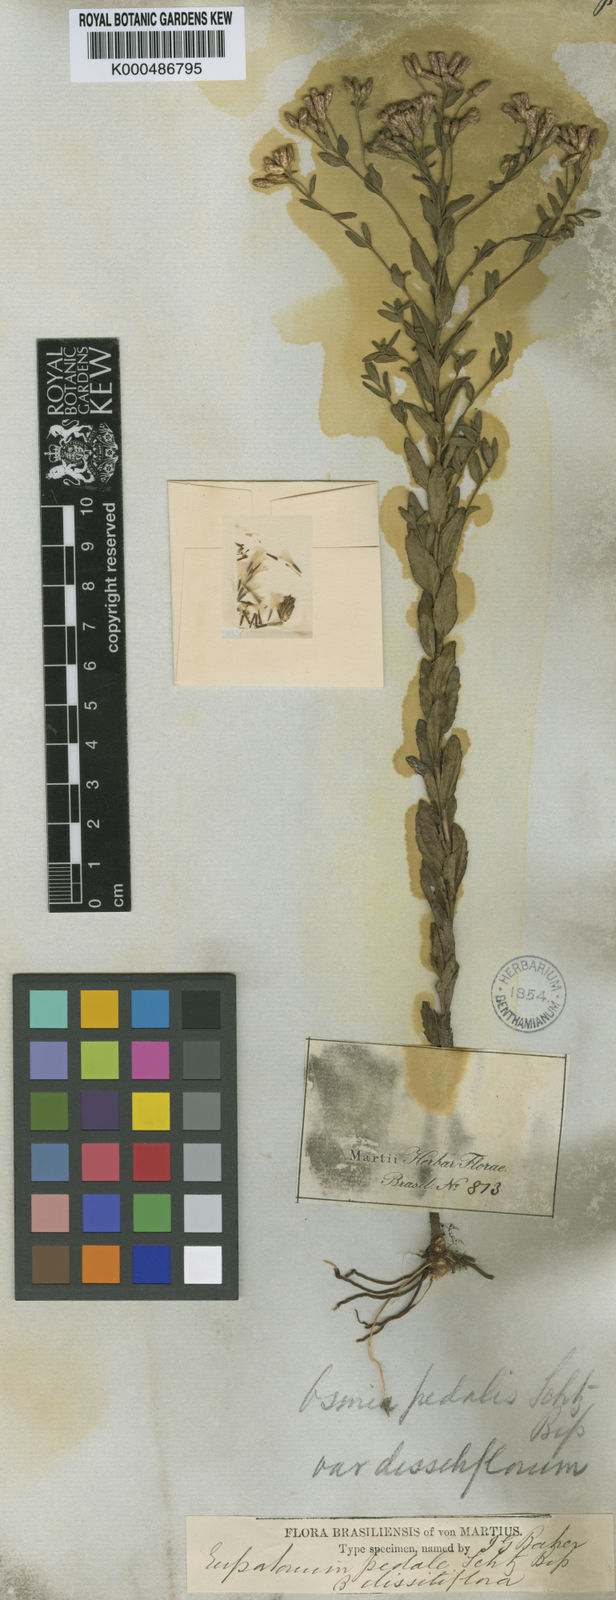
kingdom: Plantae
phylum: Tracheophyta
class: Magnoliopsida
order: Asterales
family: Asteraceae
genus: Chromolaena
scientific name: Chromolaena pedalis
